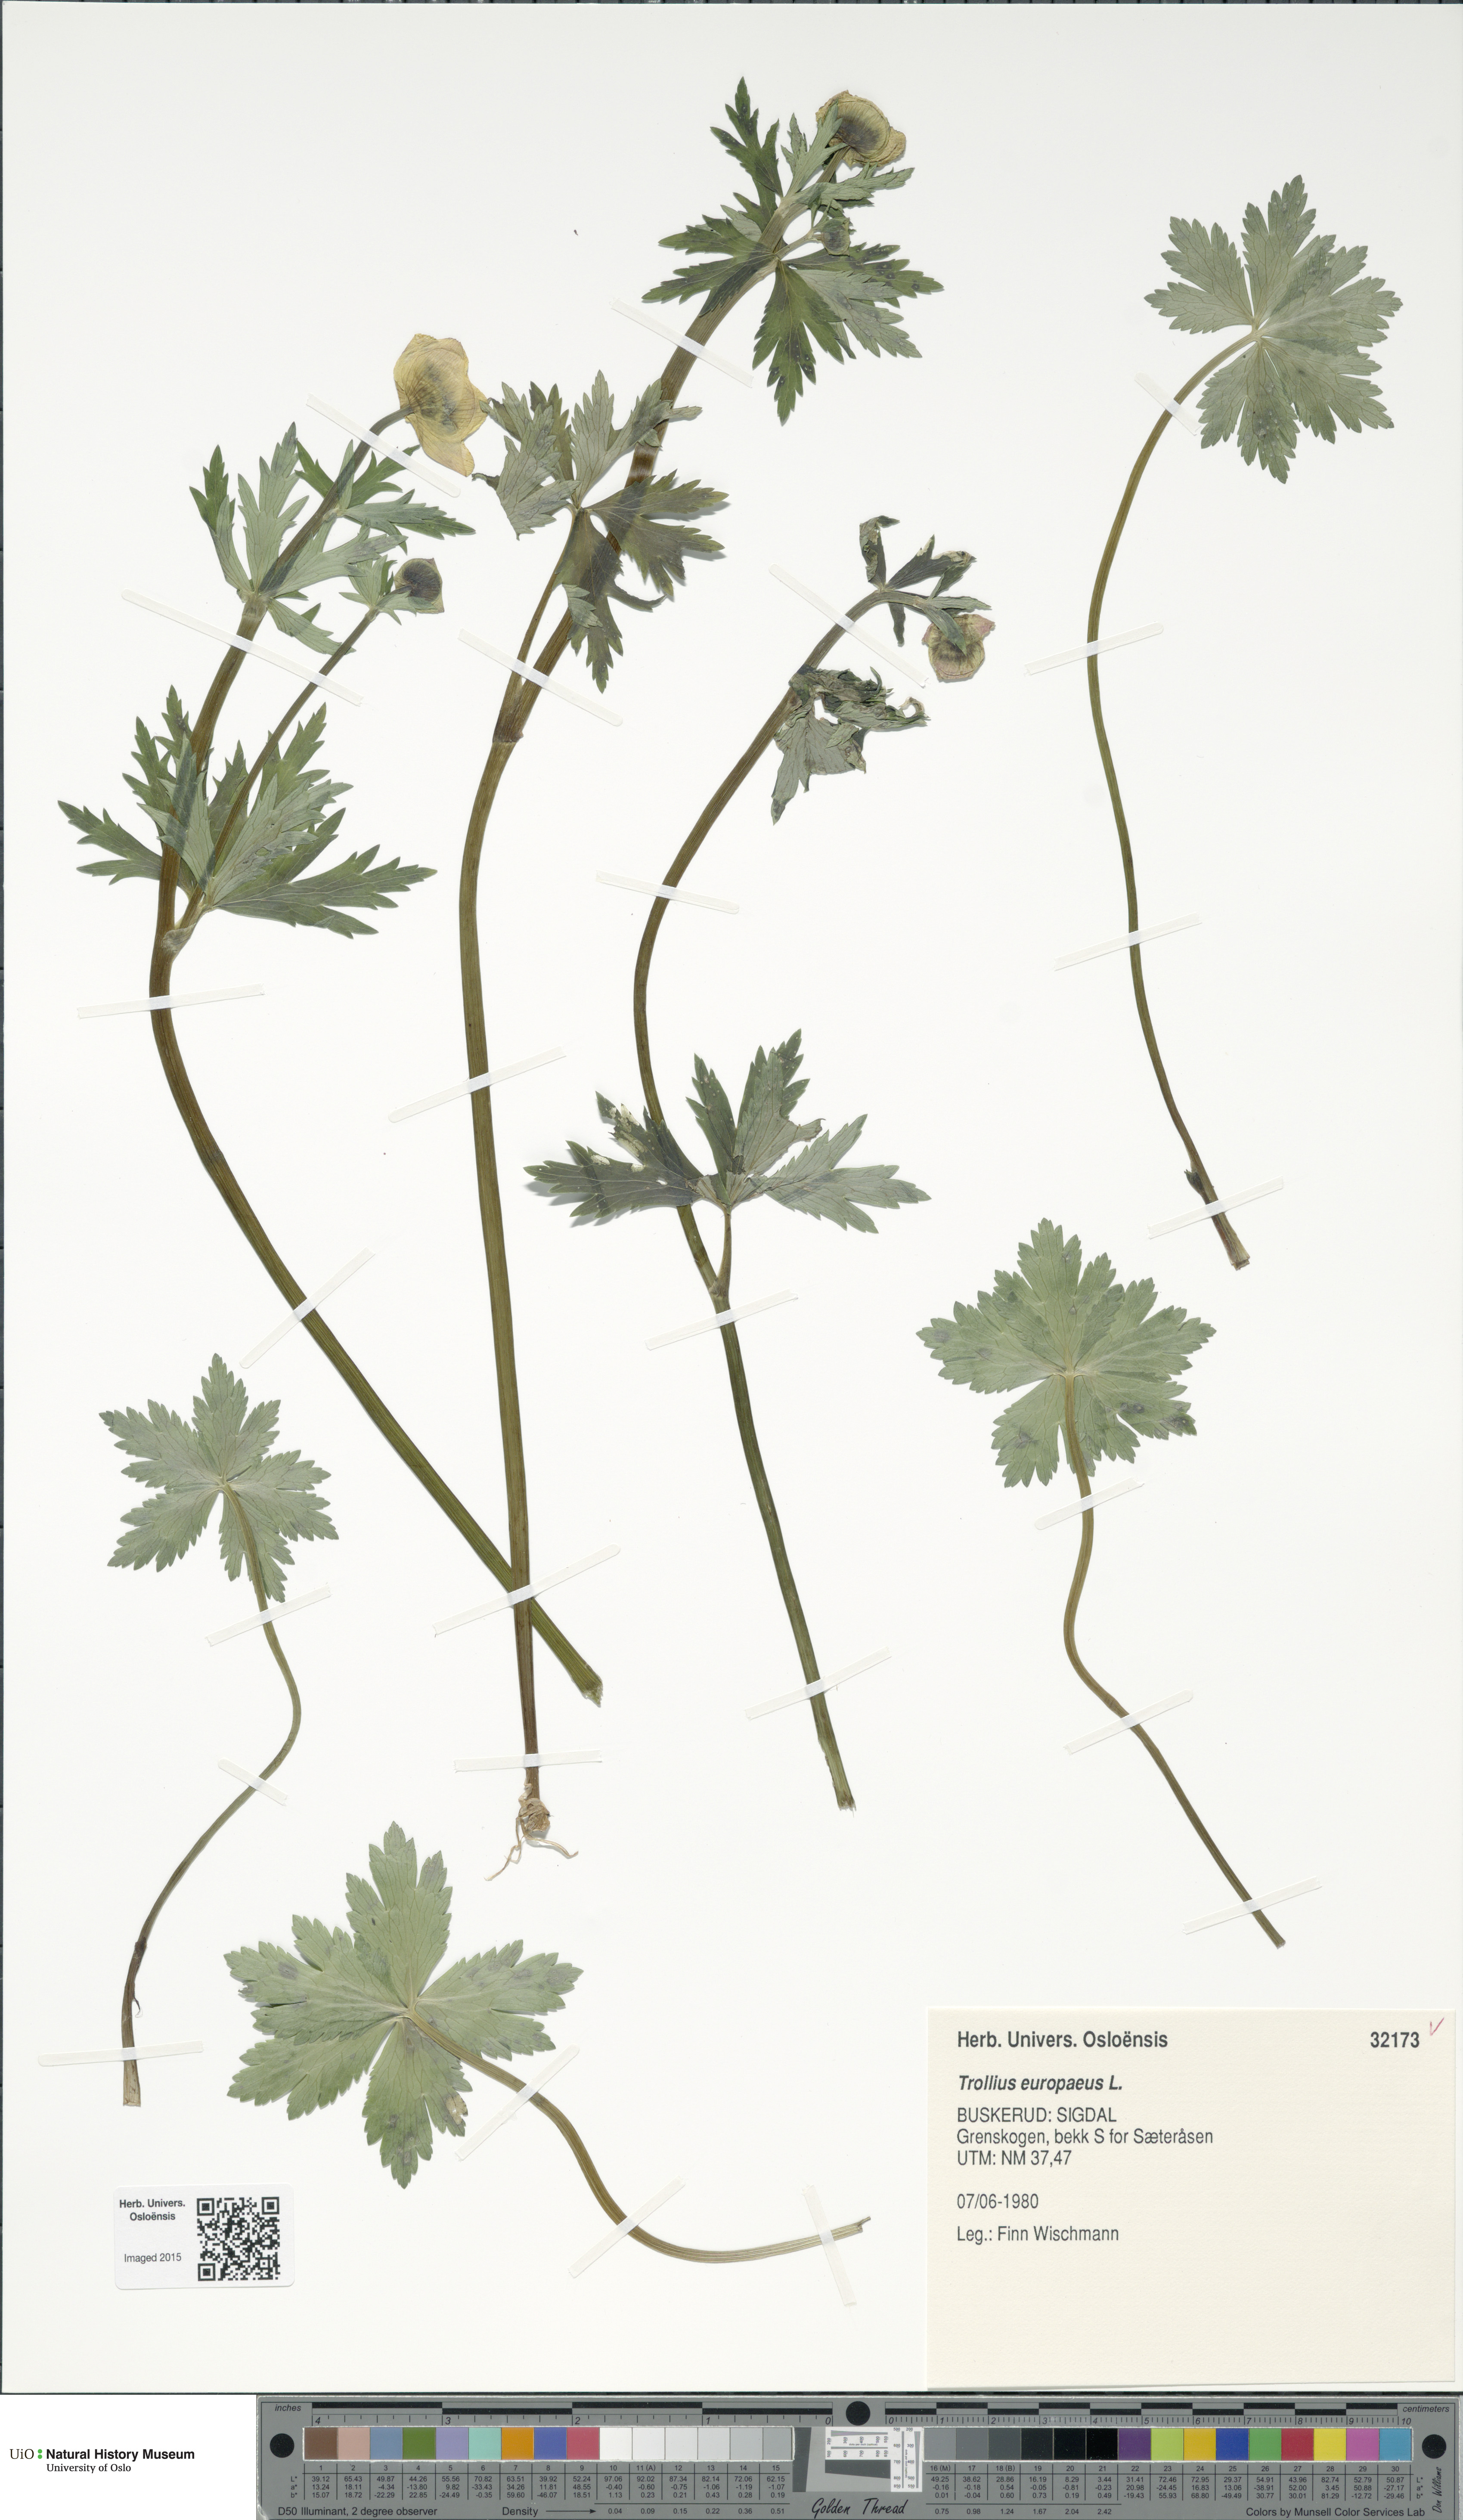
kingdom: Plantae
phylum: Tracheophyta
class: Magnoliopsida
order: Ranunculales
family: Ranunculaceae
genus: Trollius
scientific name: Trollius europaeus
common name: European globeflower
